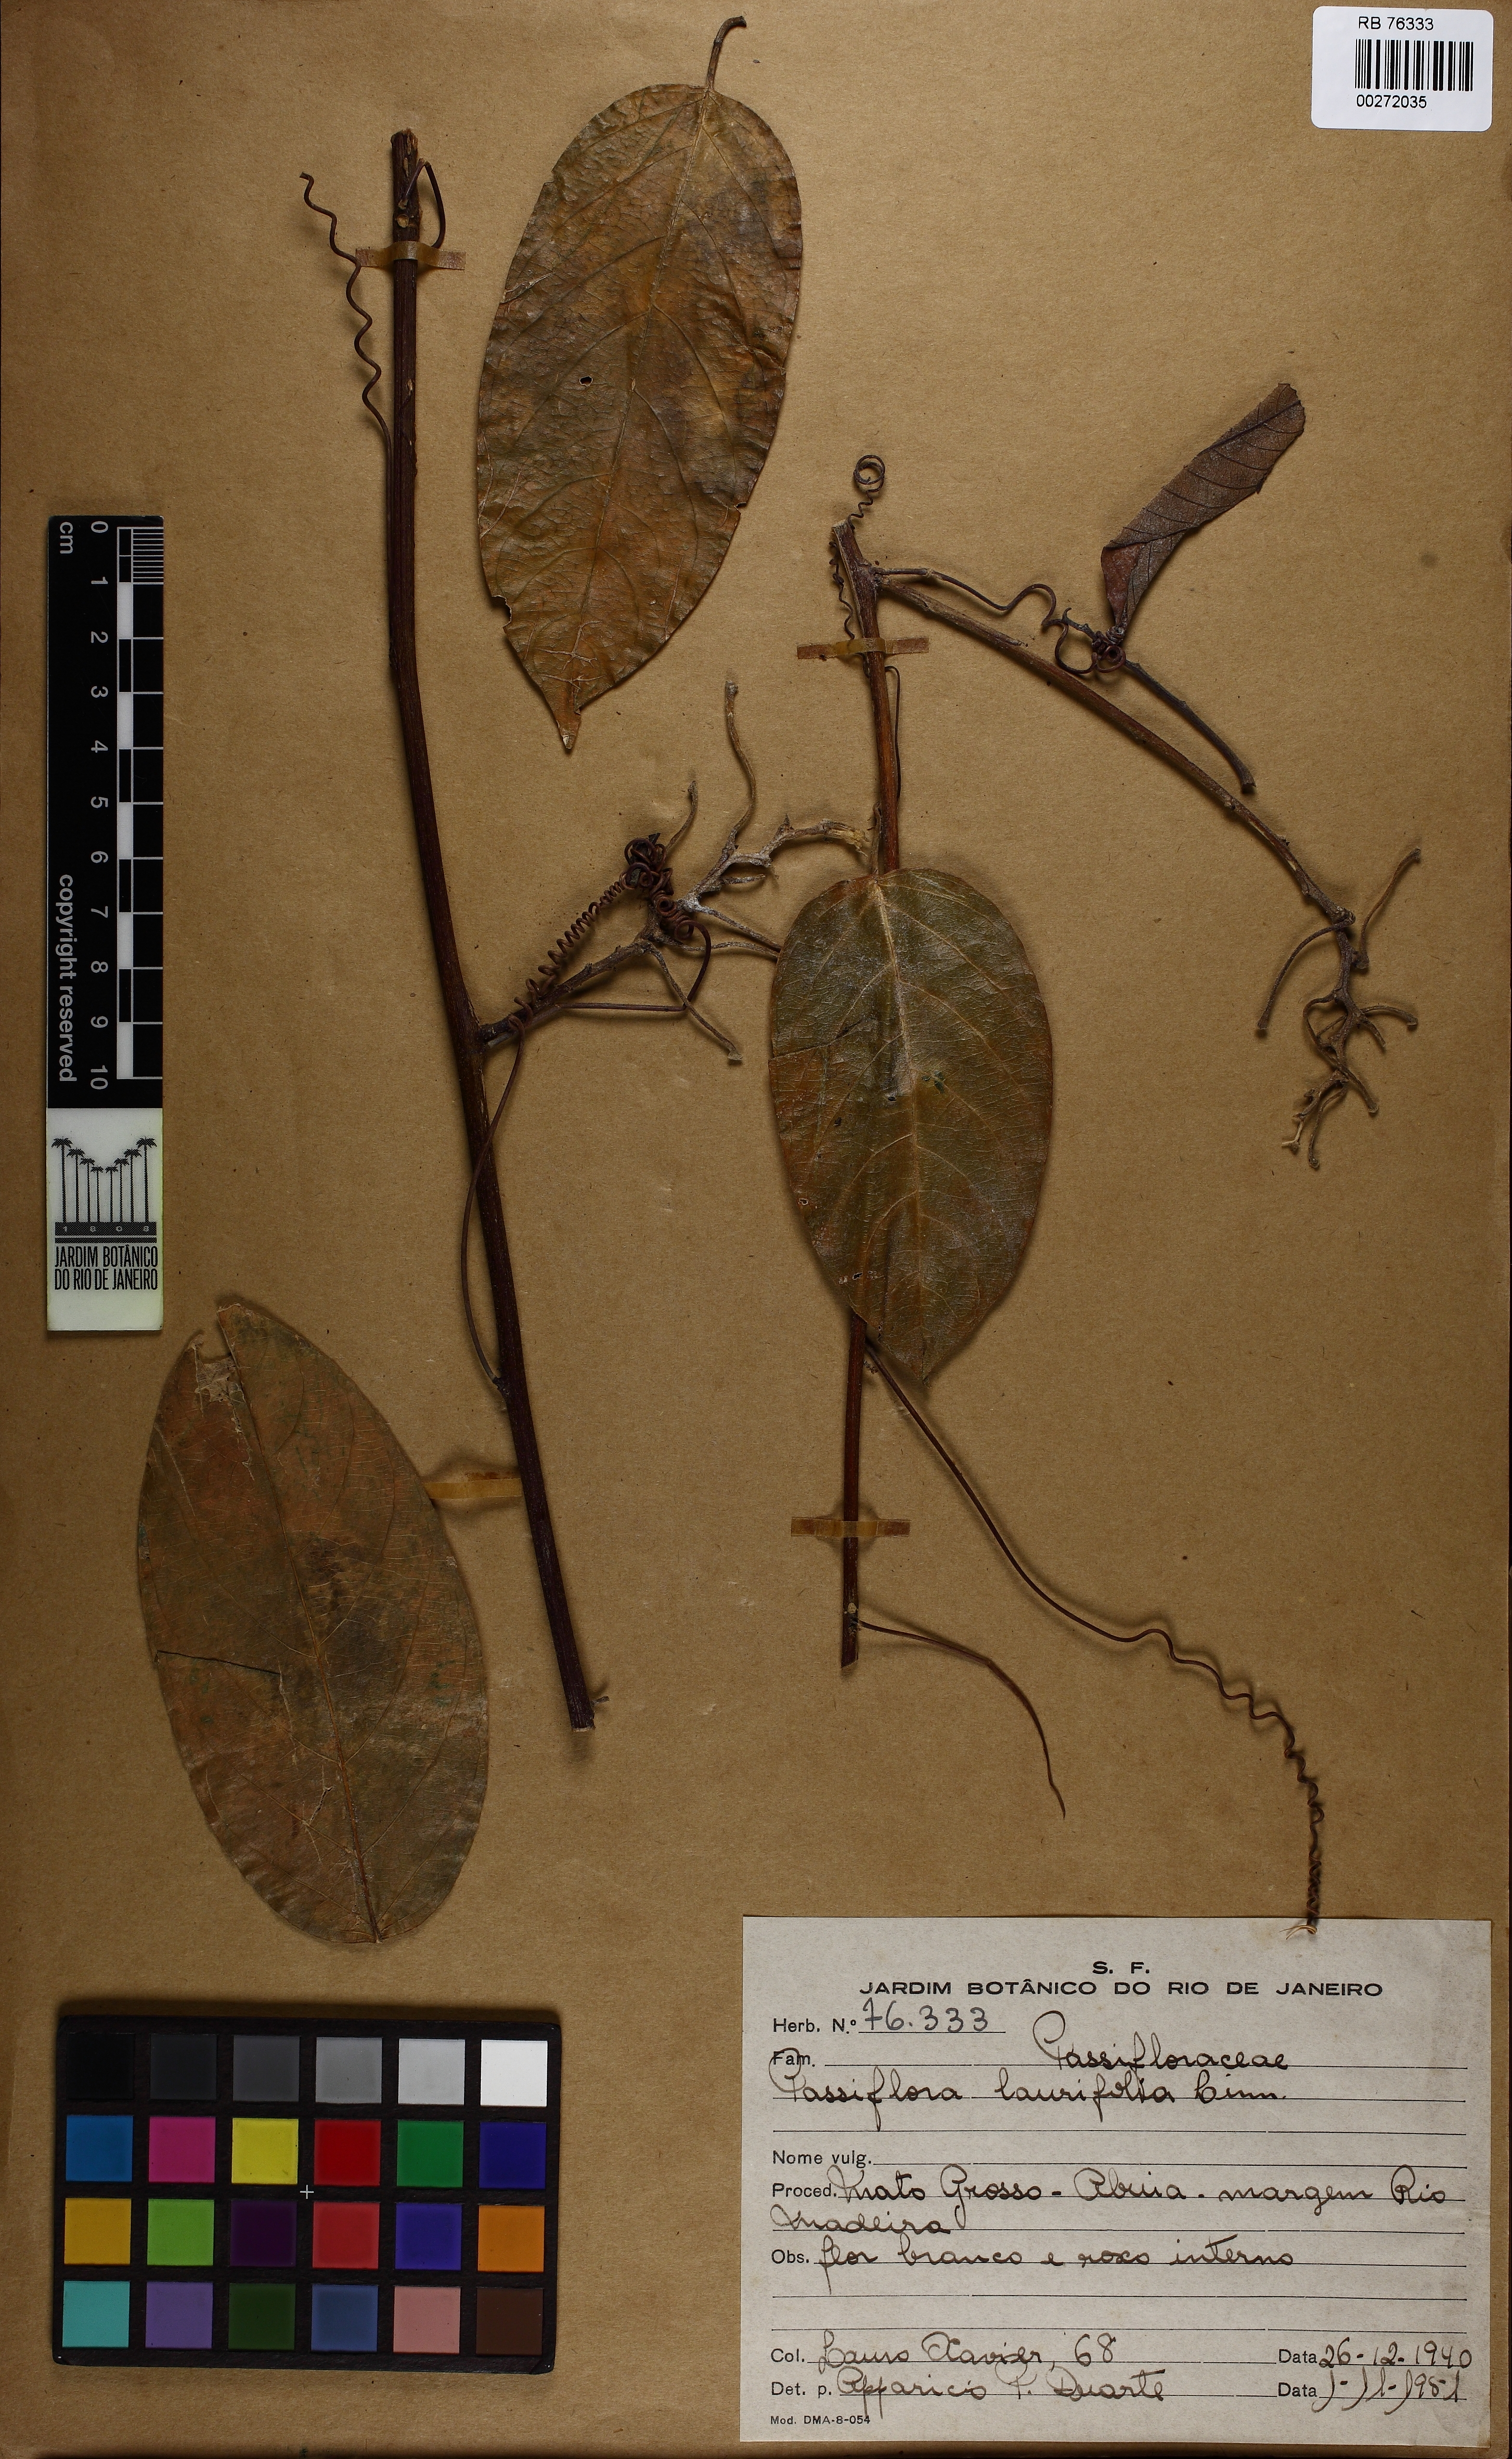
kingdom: Plantae
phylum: Tracheophyta
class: Magnoliopsida
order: Malpighiales
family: Passifloraceae
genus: Passiflora
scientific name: Passiflora laurifolia
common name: Bell apple
